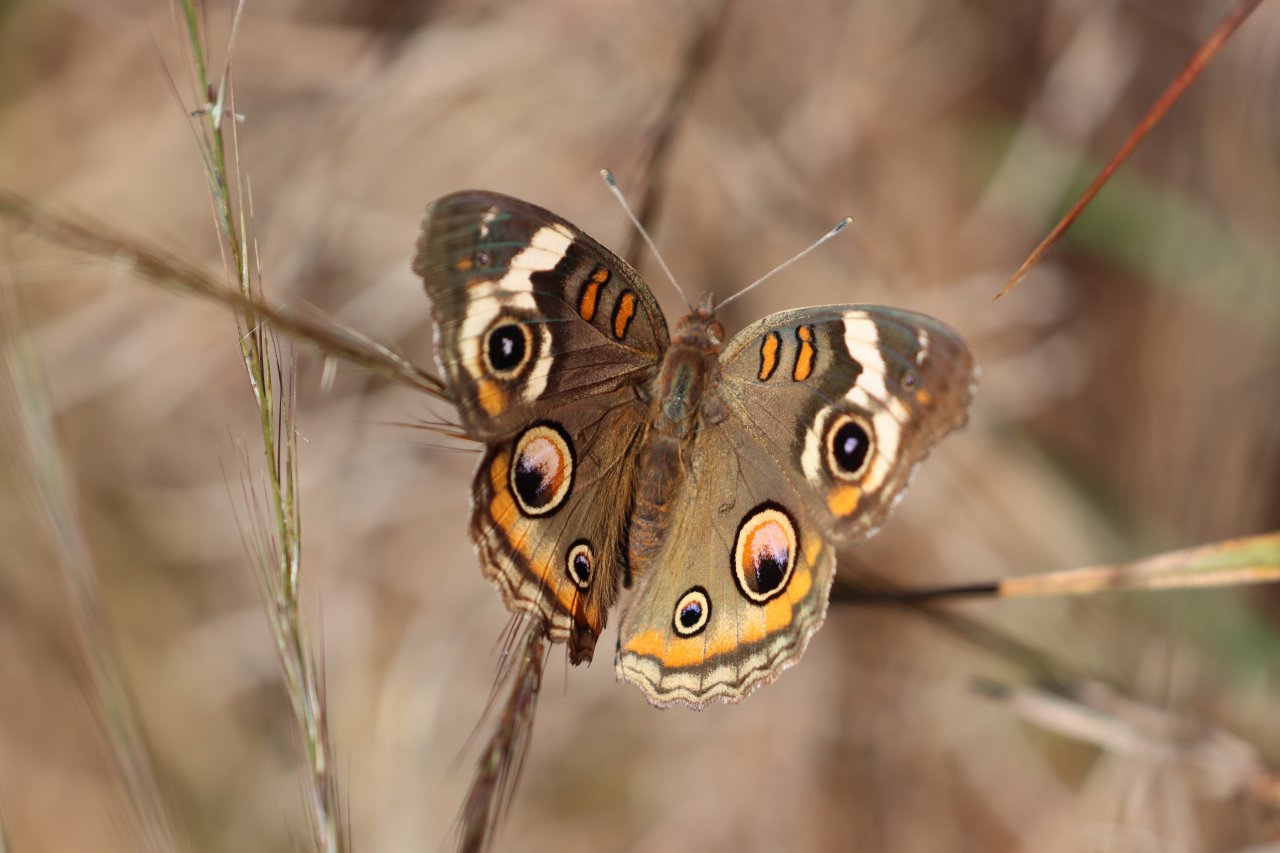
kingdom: Animalia
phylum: Arthropoda
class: Insecta
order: Lepidoptera
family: Nymphalidae
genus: Junonia
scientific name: Junonia coenia
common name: Common Buckeye
